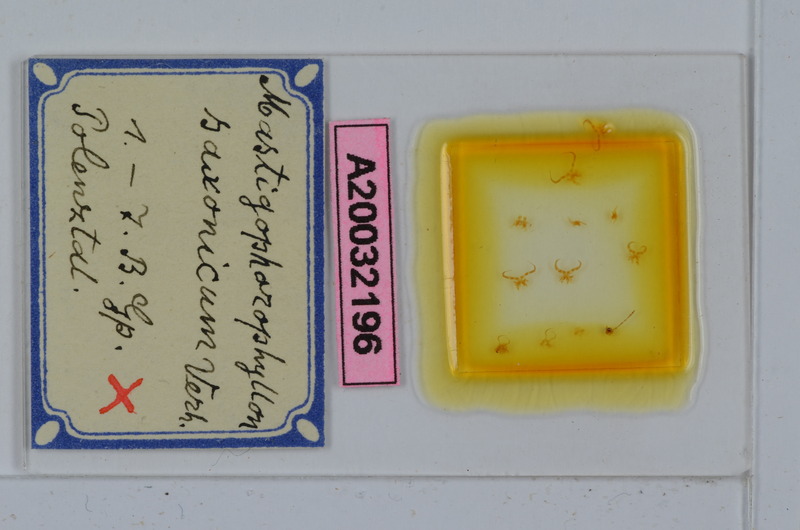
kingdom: Animalia
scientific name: Animalia
